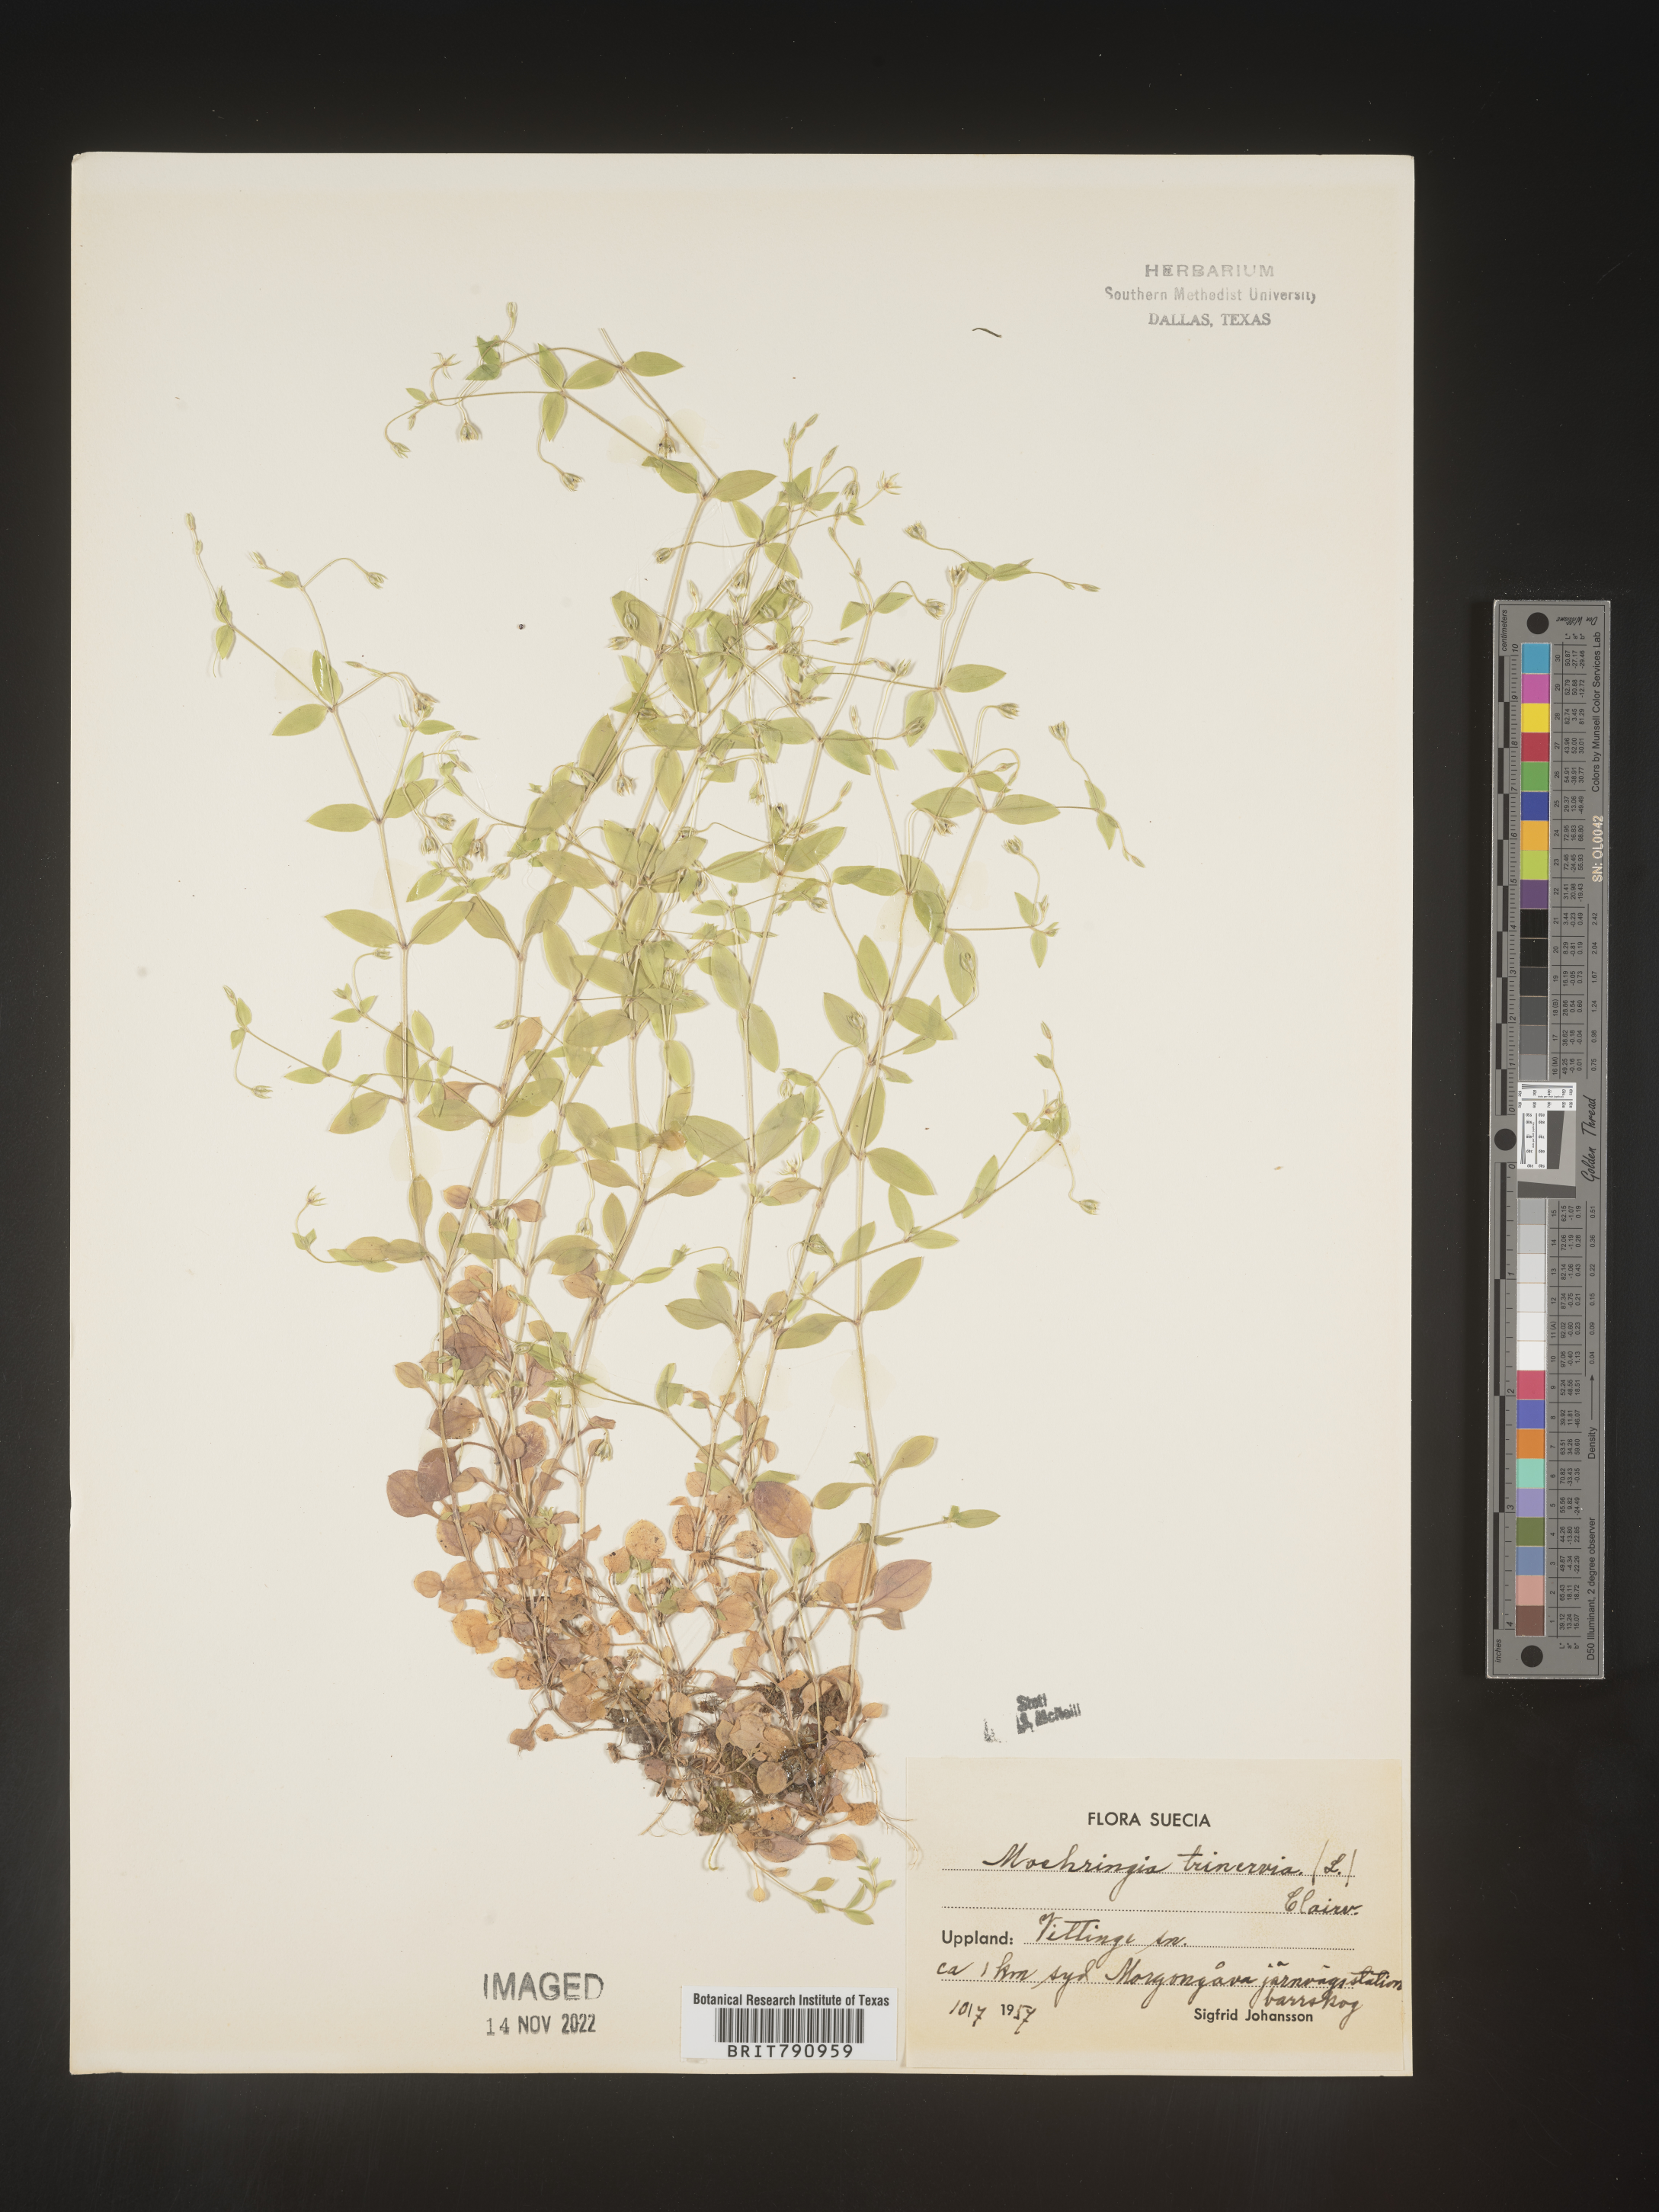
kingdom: Plantae
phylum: Tracheophyta
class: Magnoliopsida
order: Caryophyllales
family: Caryophyllaceae
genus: Moehringia
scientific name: Moehringia
